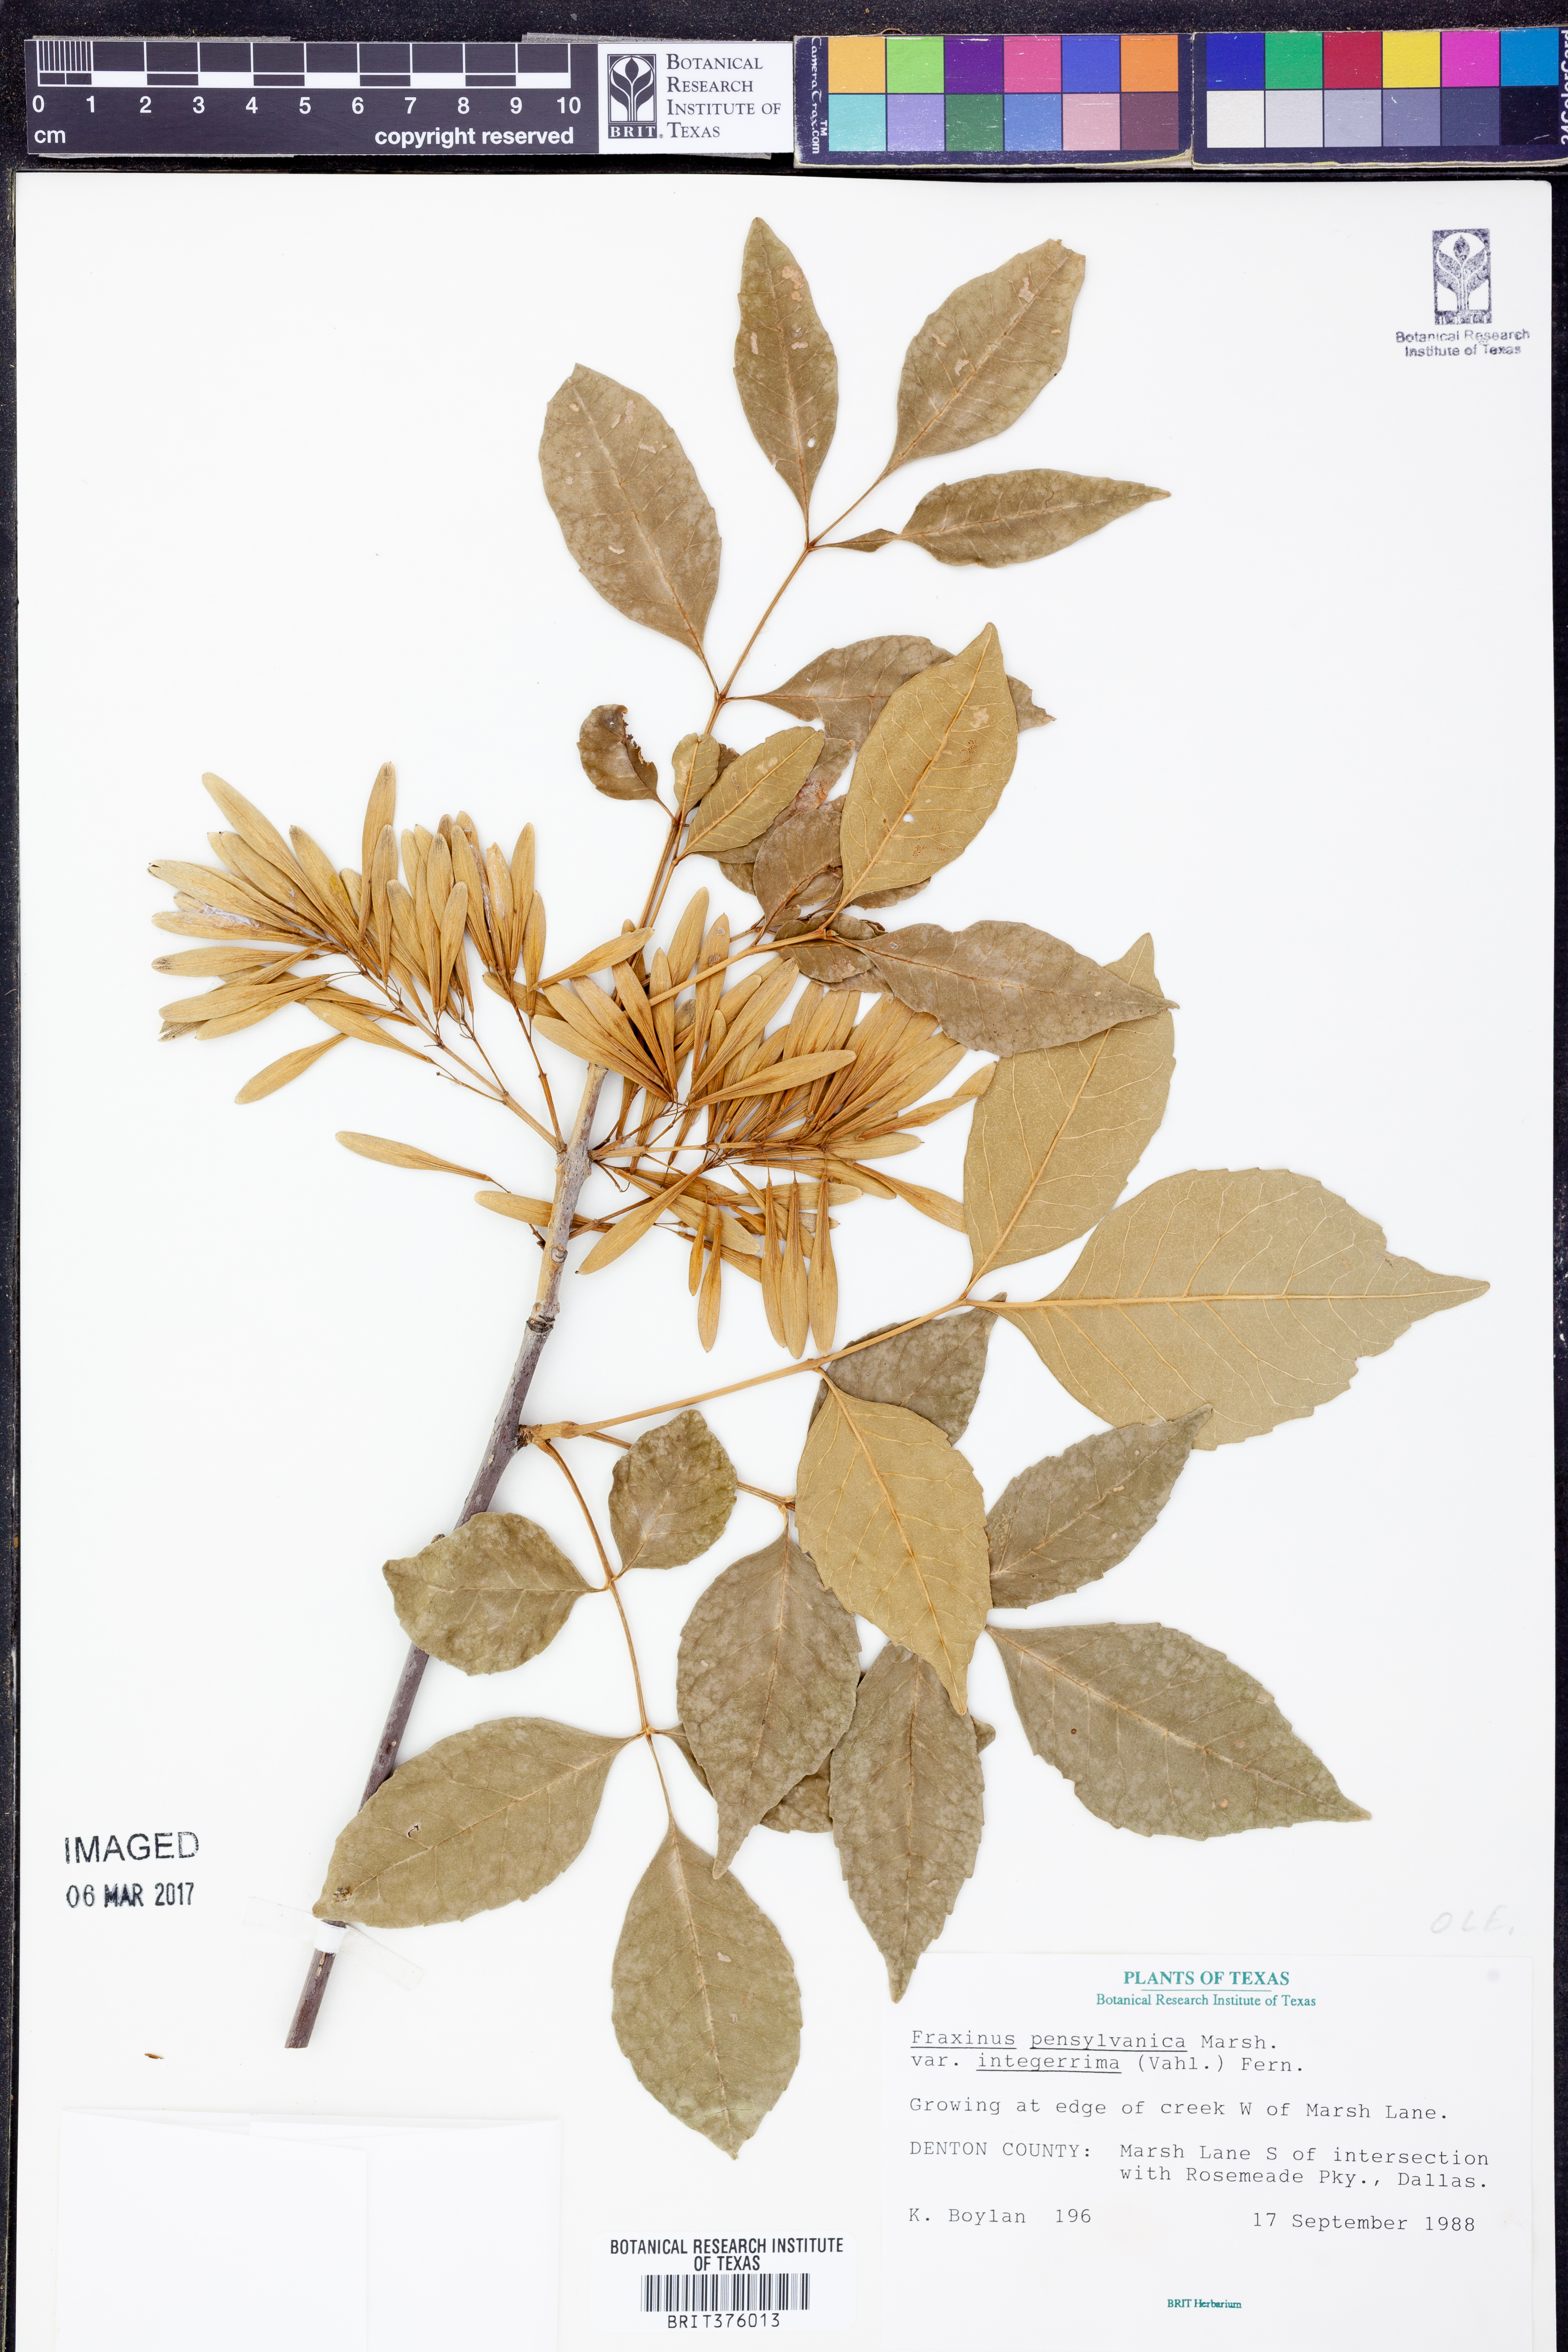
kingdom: Plantae
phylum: Tracheophyta
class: Magnoliopsida
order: Lamiales
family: Oleaceae
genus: Fraxinus
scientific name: Fraxinus pennsylvanica
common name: Green ash
